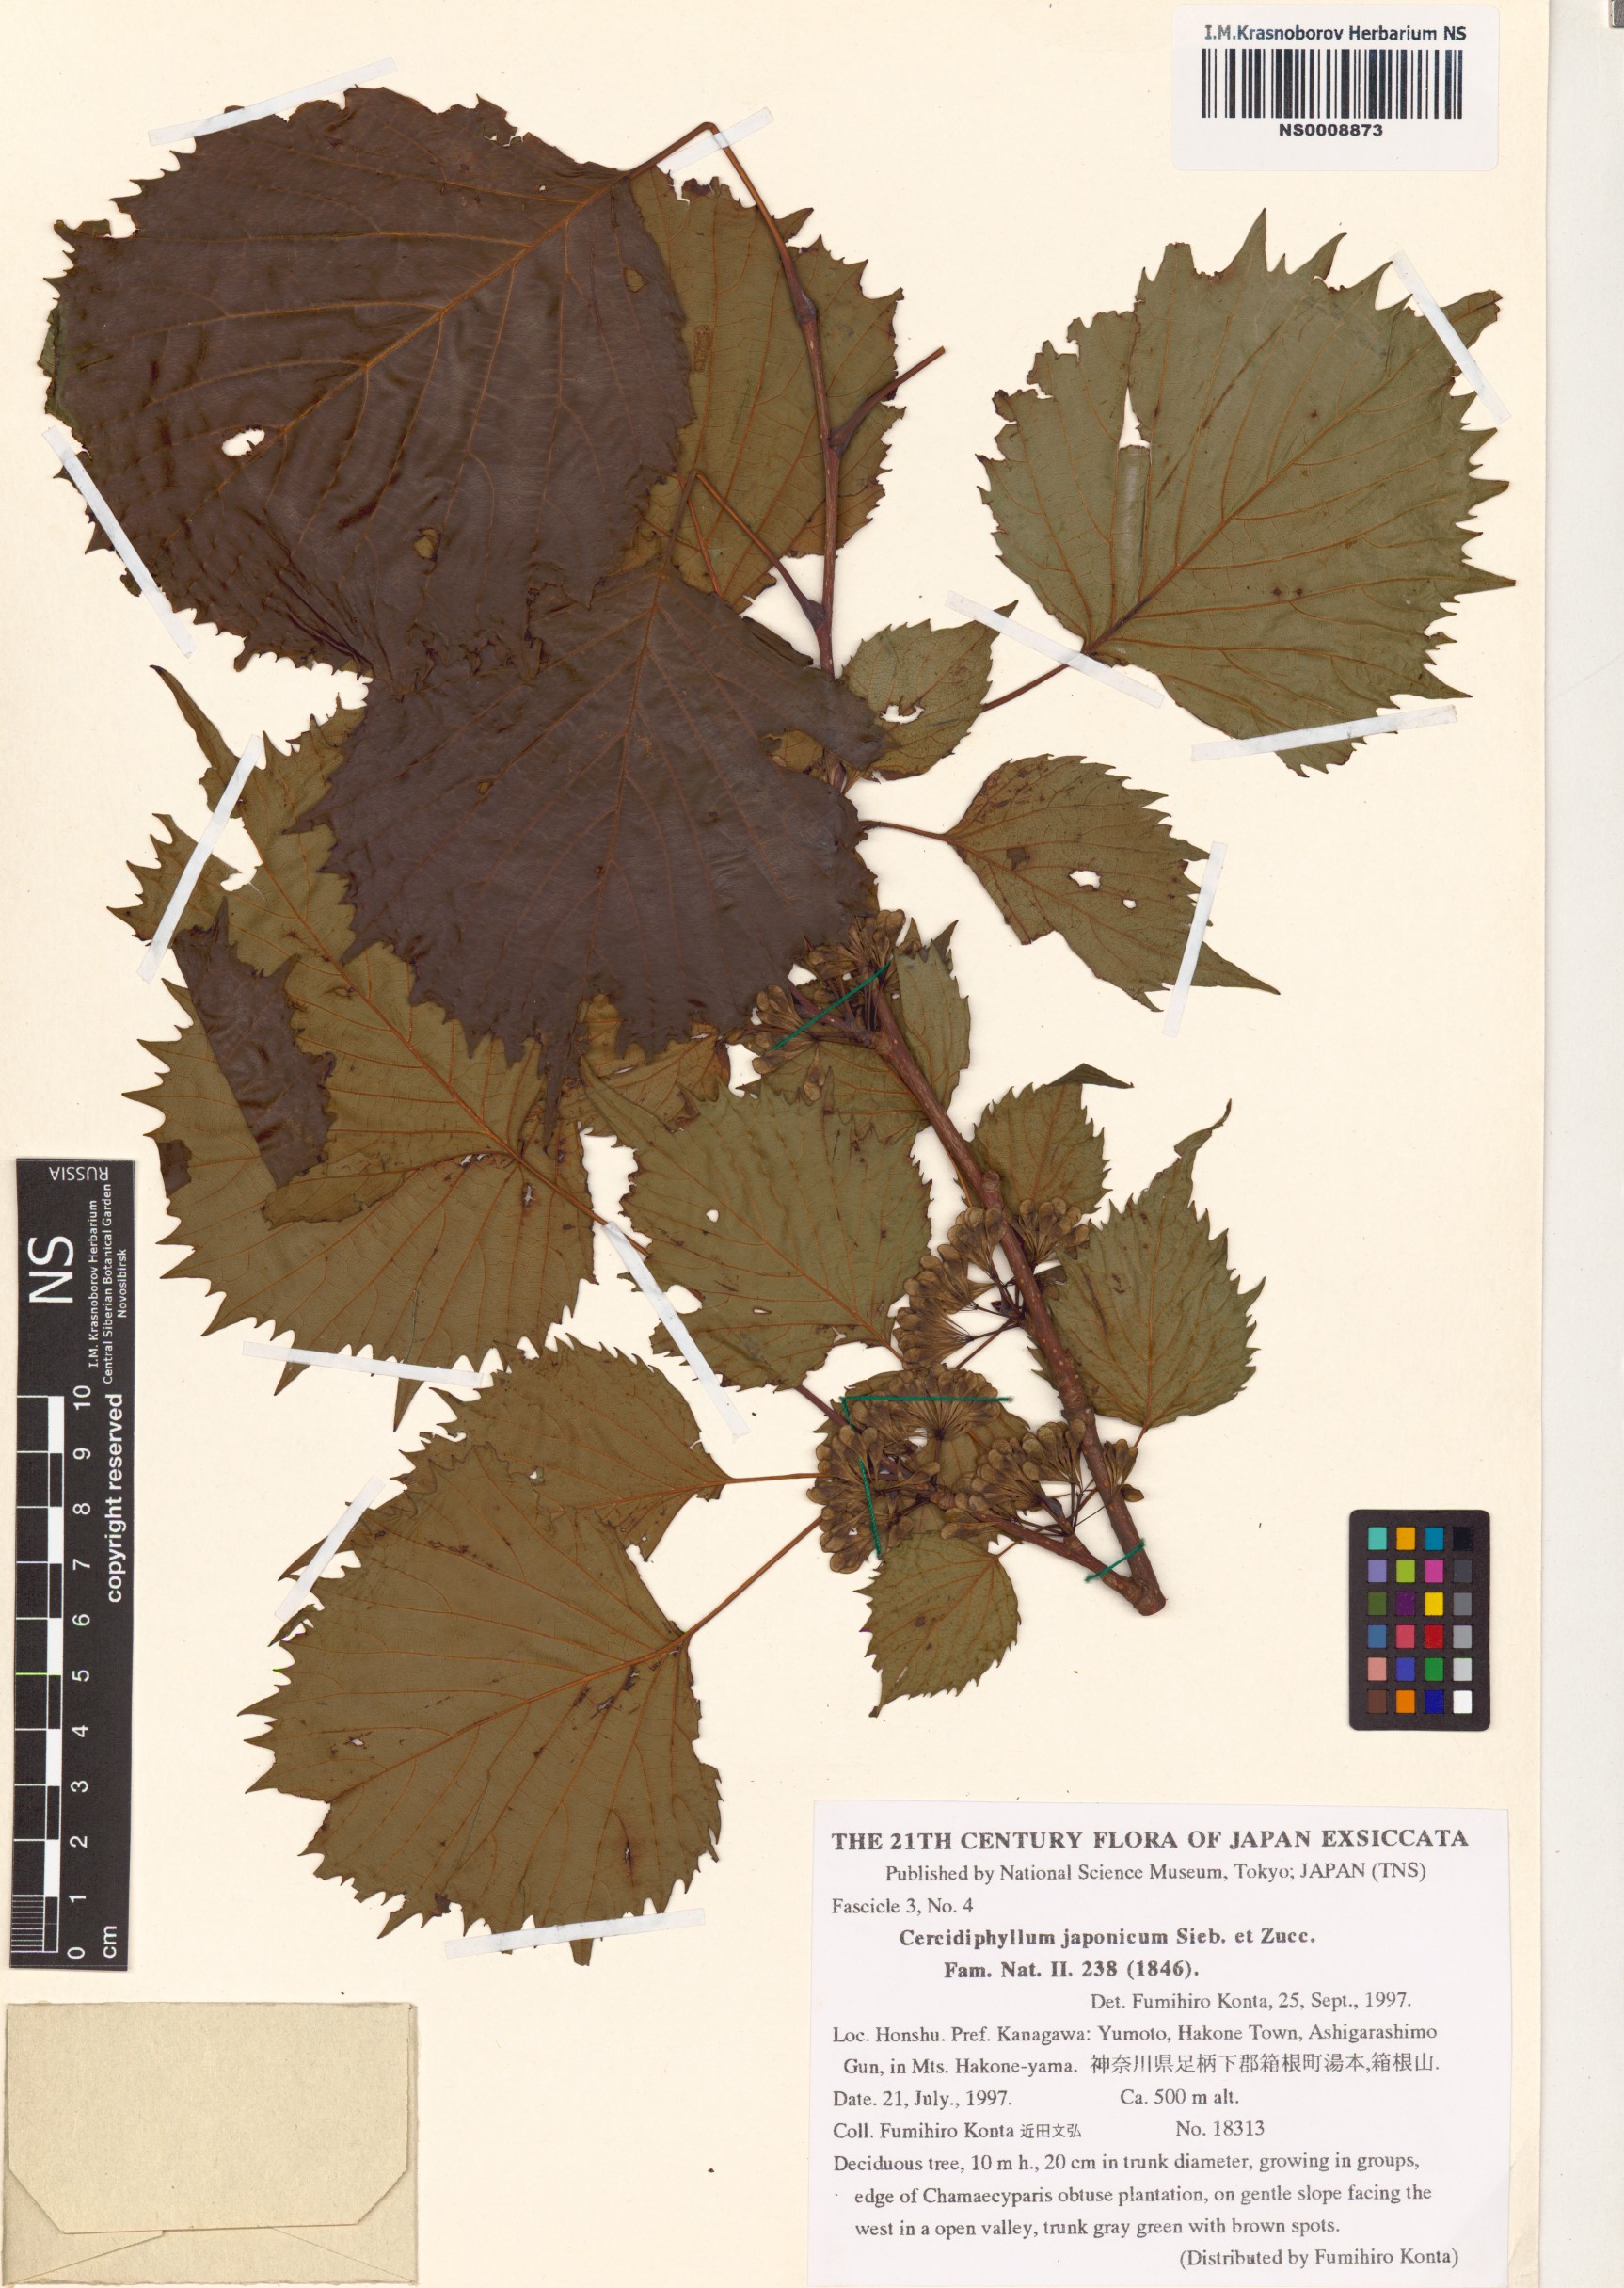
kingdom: Plantae
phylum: Tracheophyta
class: Magnoliopsida
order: Saxifragales
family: Cercidiphyllaceae
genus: Cercidiphyllum
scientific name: Cercidiphyllum japonicum
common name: Katsura tree
